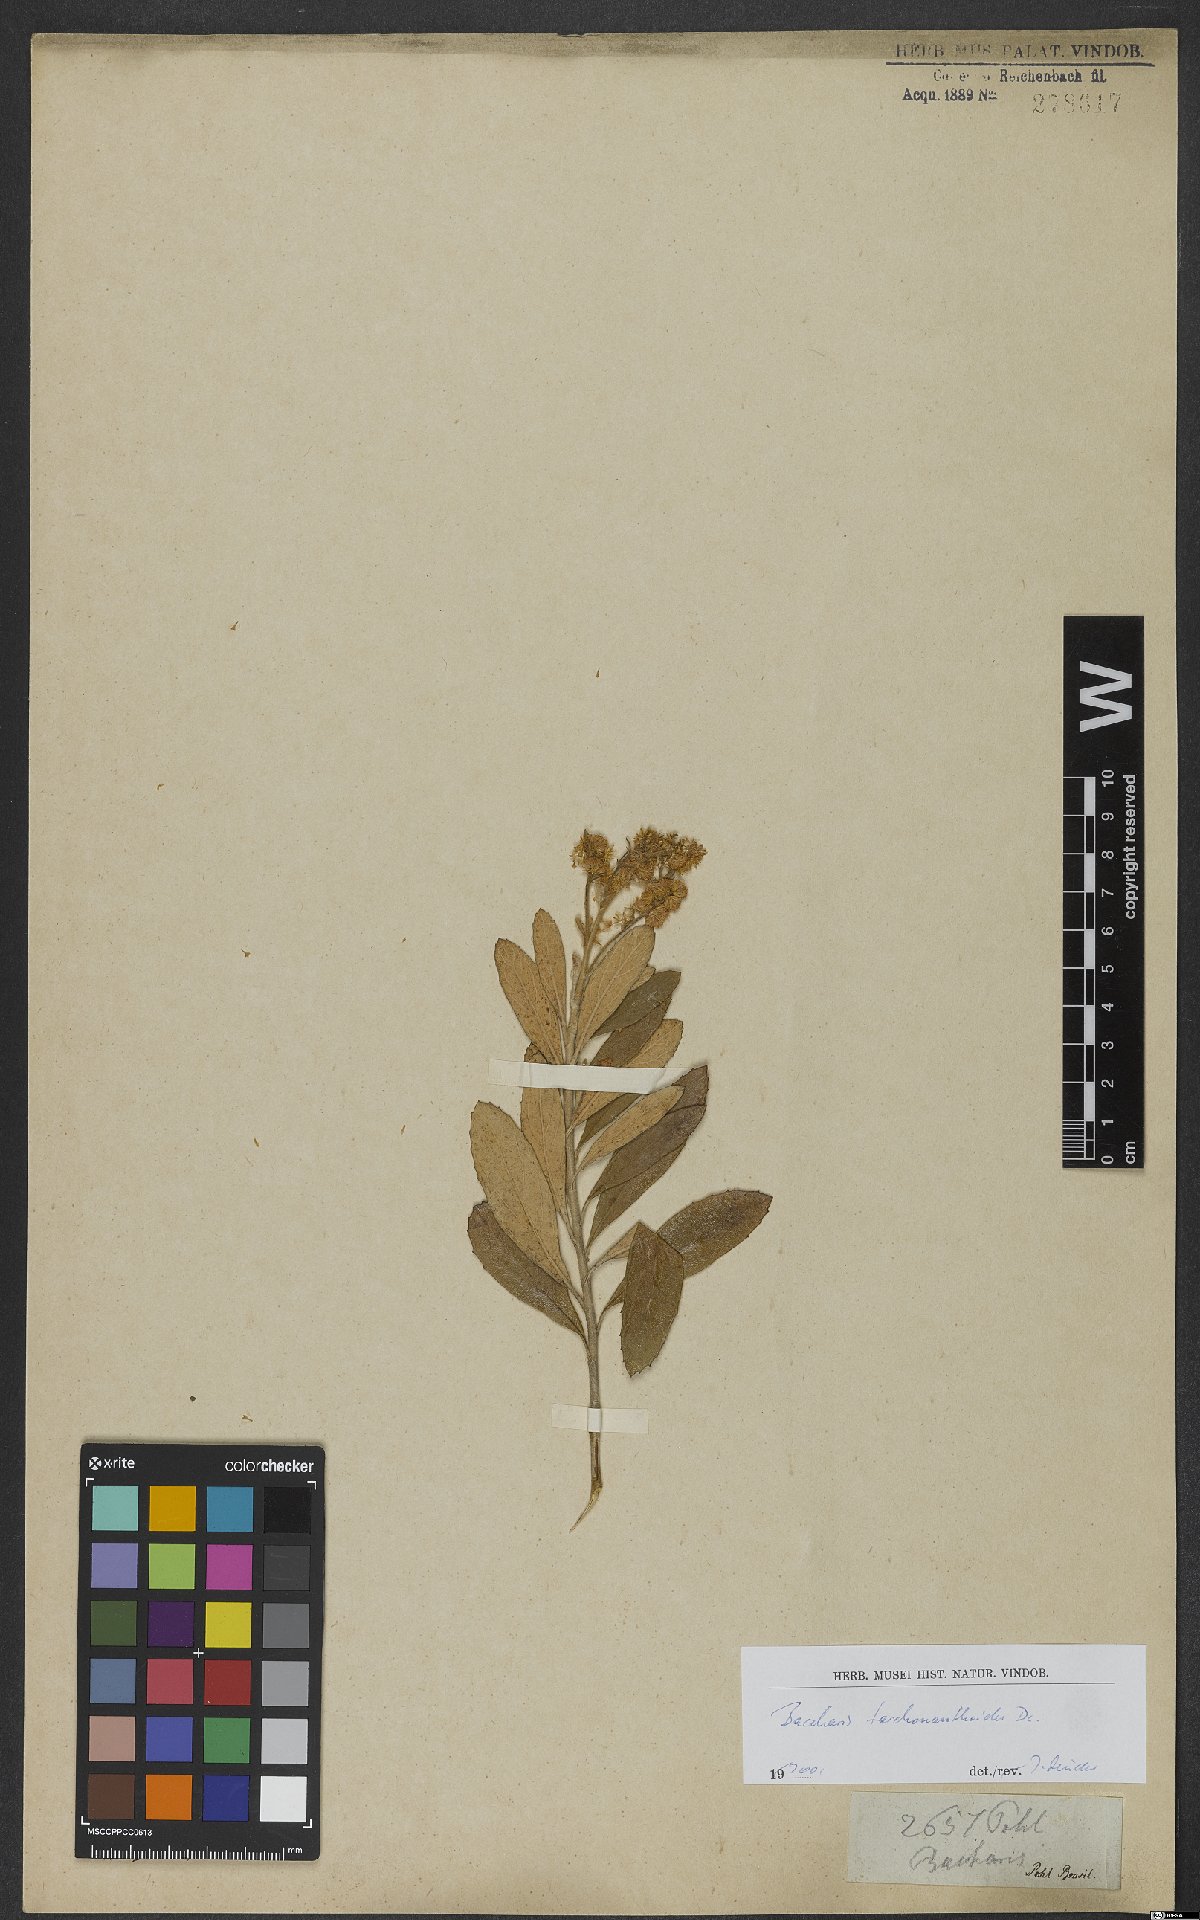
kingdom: Plantae
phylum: Tracheophyta
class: Magnoliopsida
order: Asterales
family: Asteraceae
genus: Baccharis
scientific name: Baccharis tarchonanthoides
